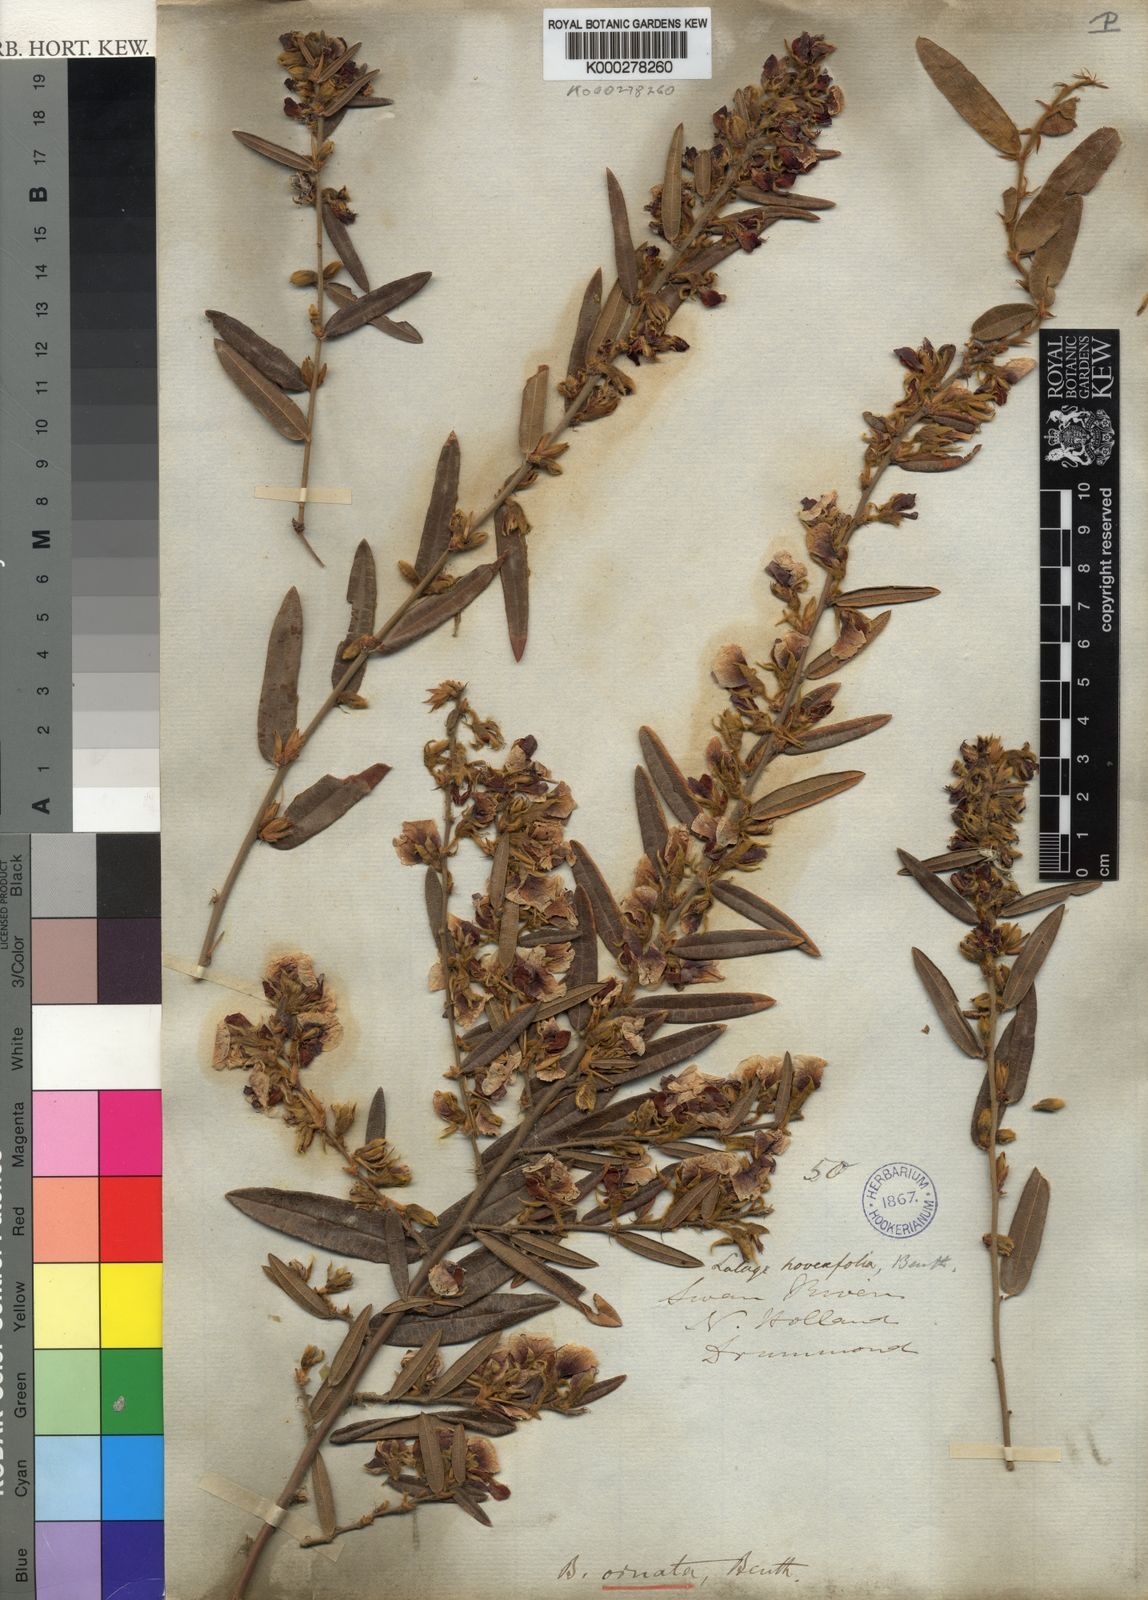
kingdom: Plantae
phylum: Tracheophyta
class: Magnoliopsida
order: Fabales
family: Fabaceae
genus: Bossiaea
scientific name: Bossiaea ornata
